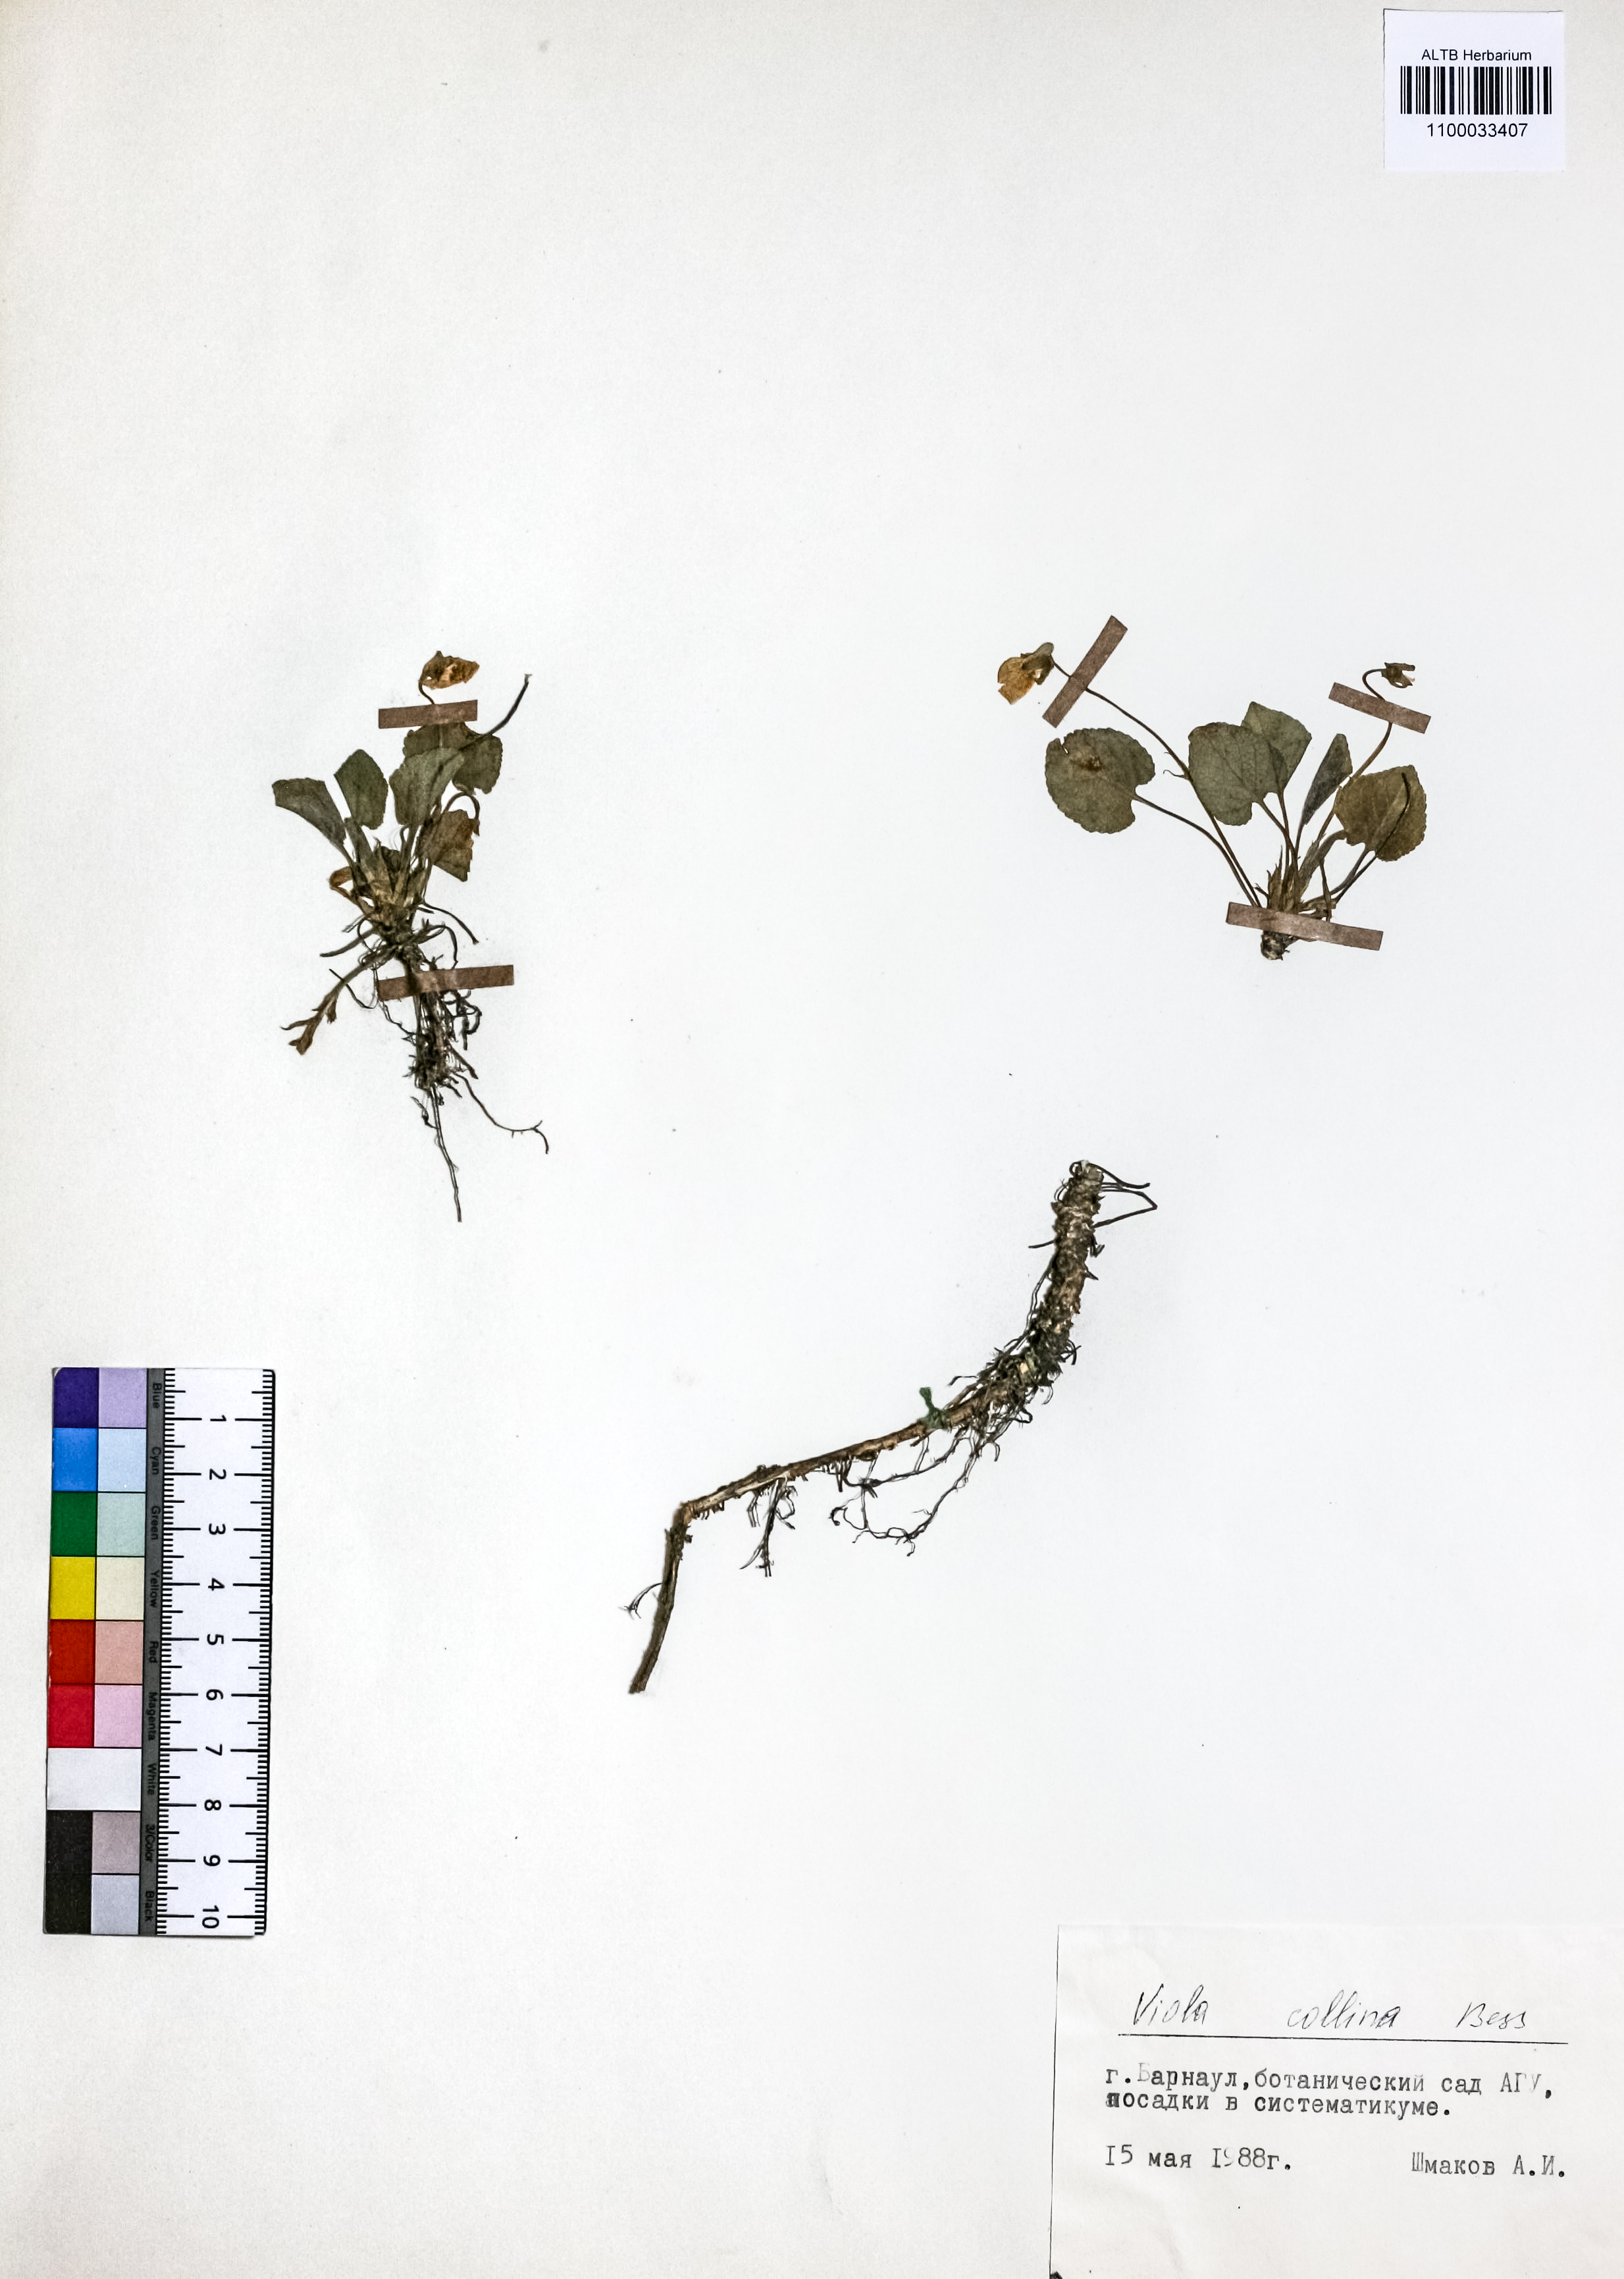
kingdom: Plantae
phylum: Tracheophyta
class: Magnoliopsida
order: Malpighiales
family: Violaceae
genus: Viola
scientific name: Viola collina
